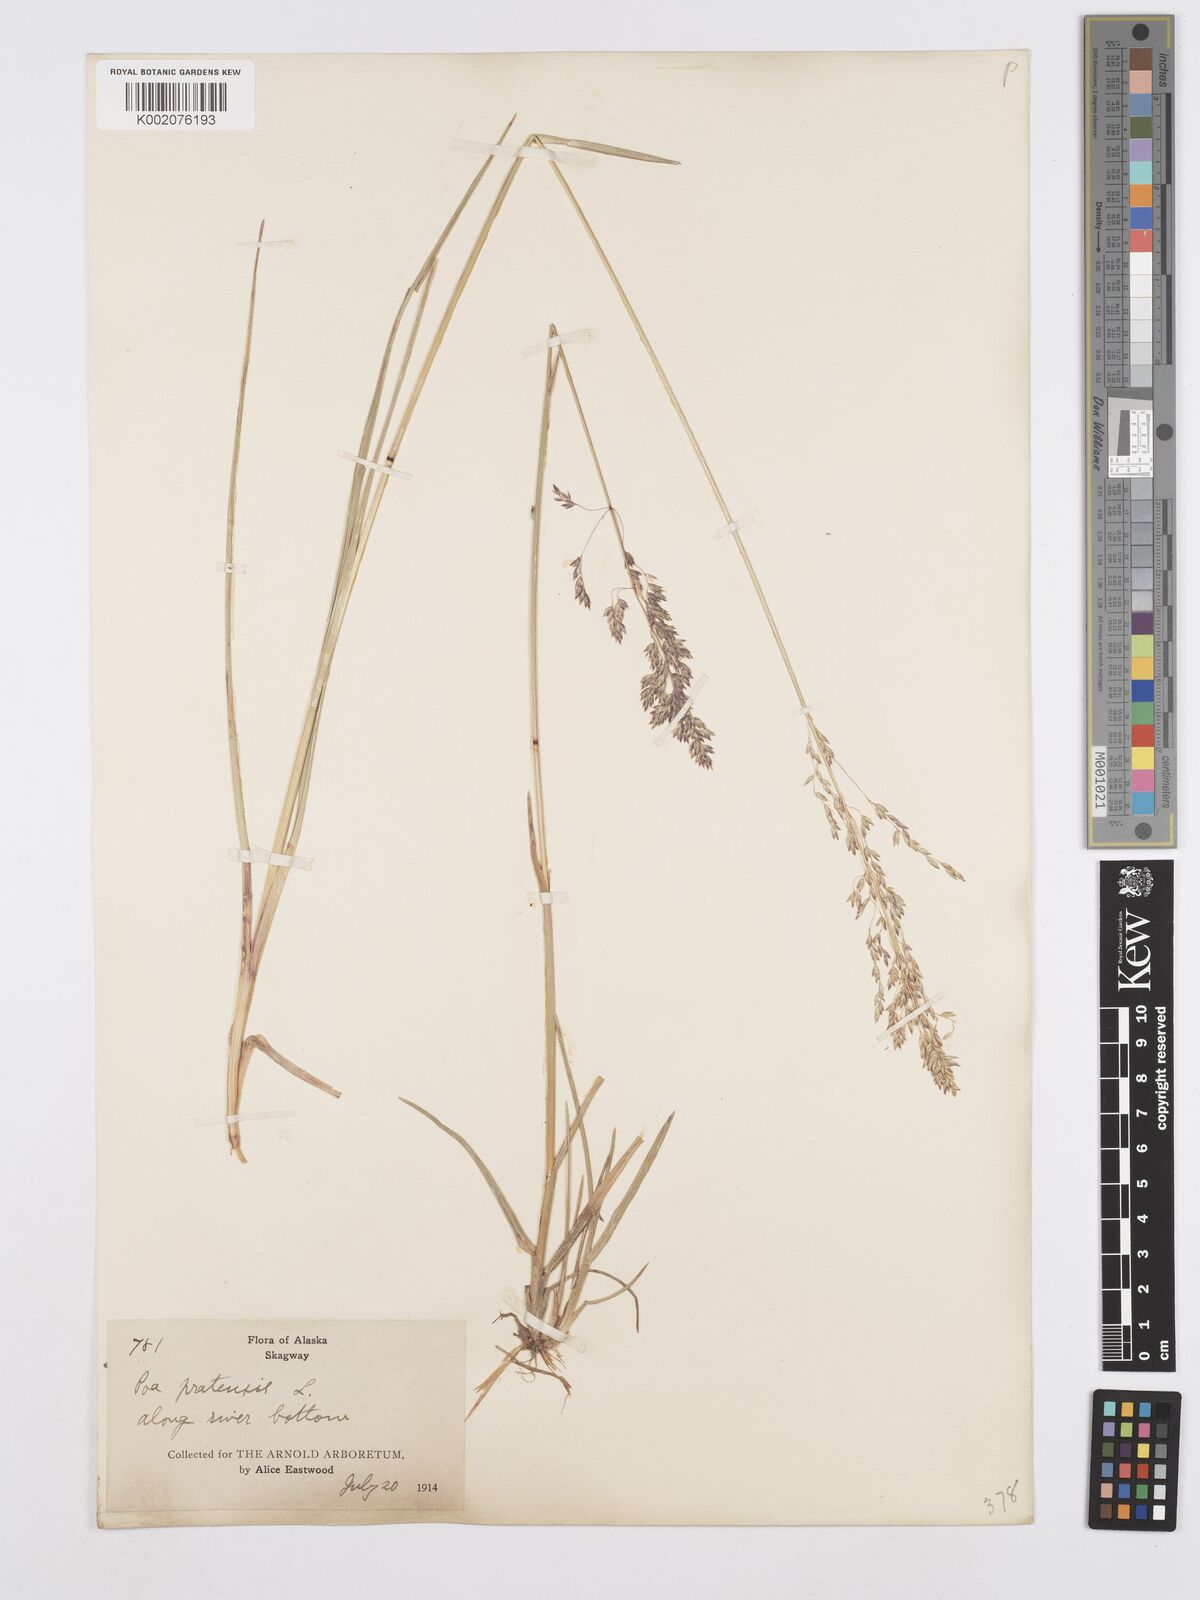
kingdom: Plantae
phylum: Tracheophyta
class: Liliopsida
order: Poales
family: Poaceae
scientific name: Poaceae
